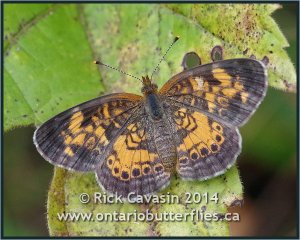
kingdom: Animalia
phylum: Arthropoda
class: Insecta
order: Lepidoptera
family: Nymphalidae
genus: Phyciodes
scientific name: Phyciodes tharos
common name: Northern Crescent
